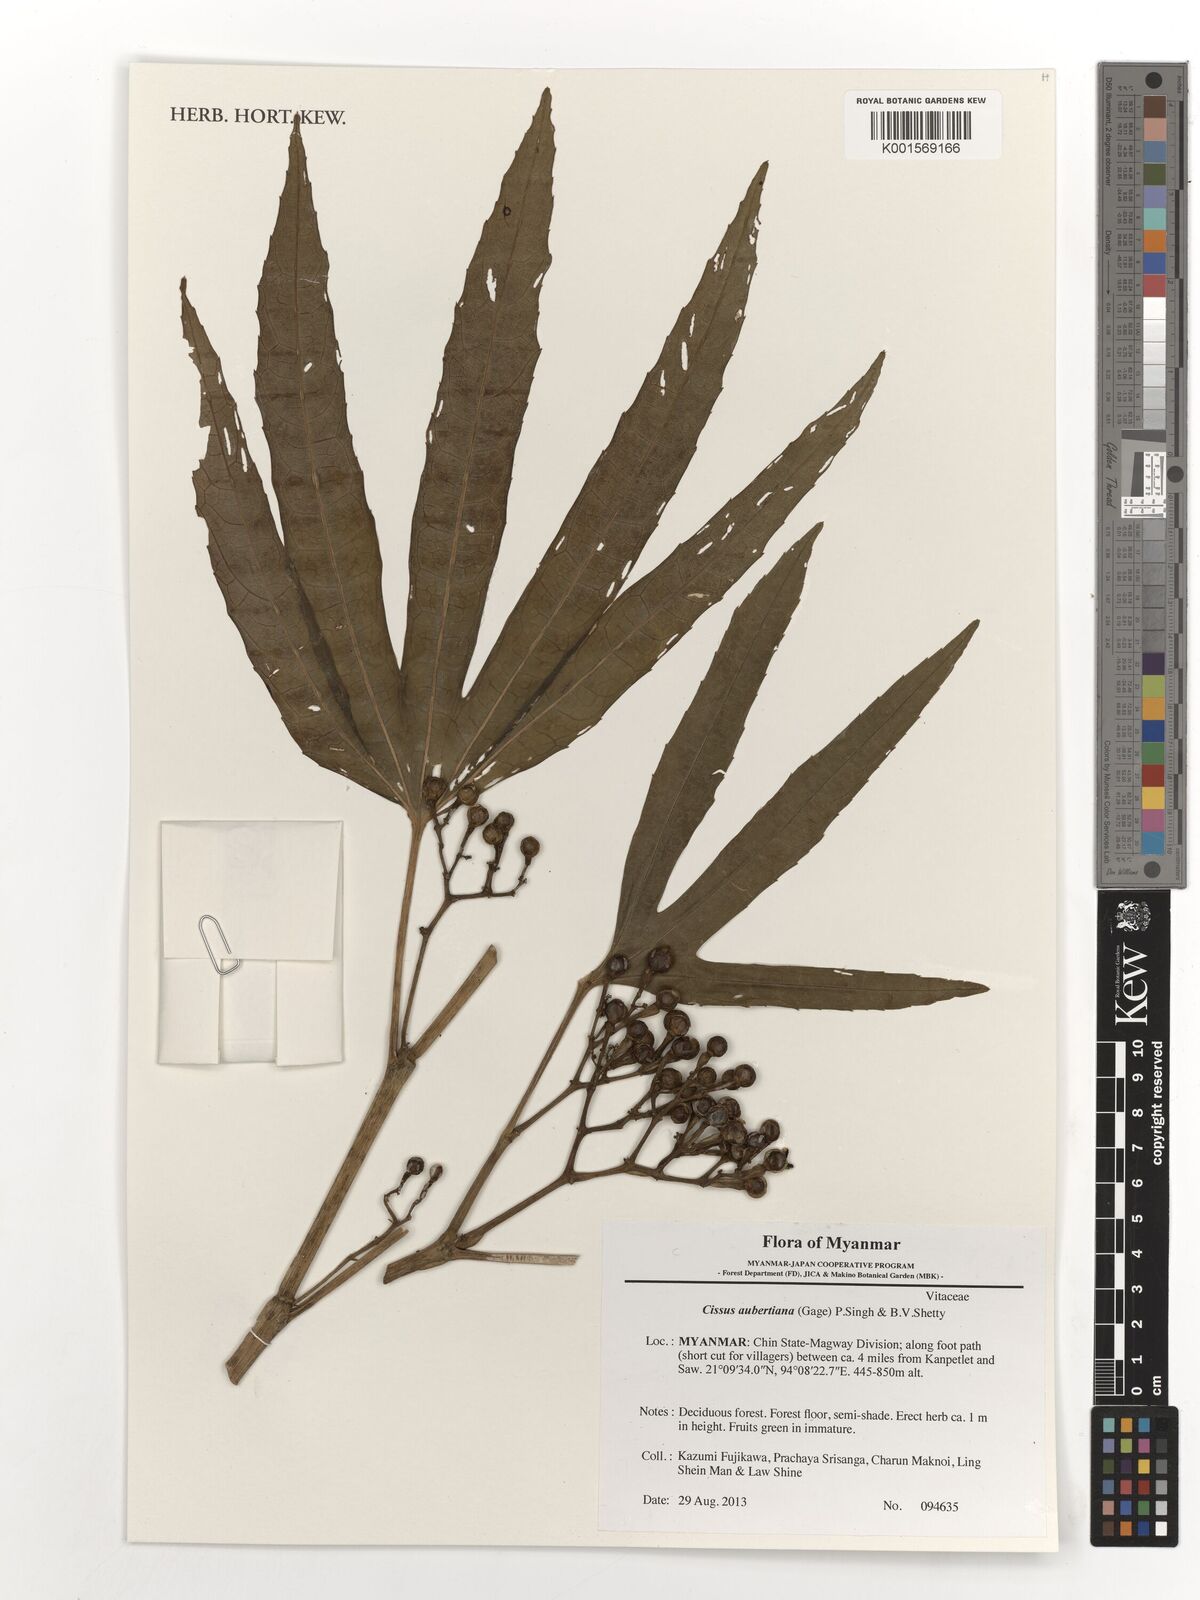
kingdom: Plantae
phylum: Tracheophyta
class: Magnoliopsida
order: Vitales
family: Vitaceae
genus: Cissus
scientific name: Cissus aubertiana
